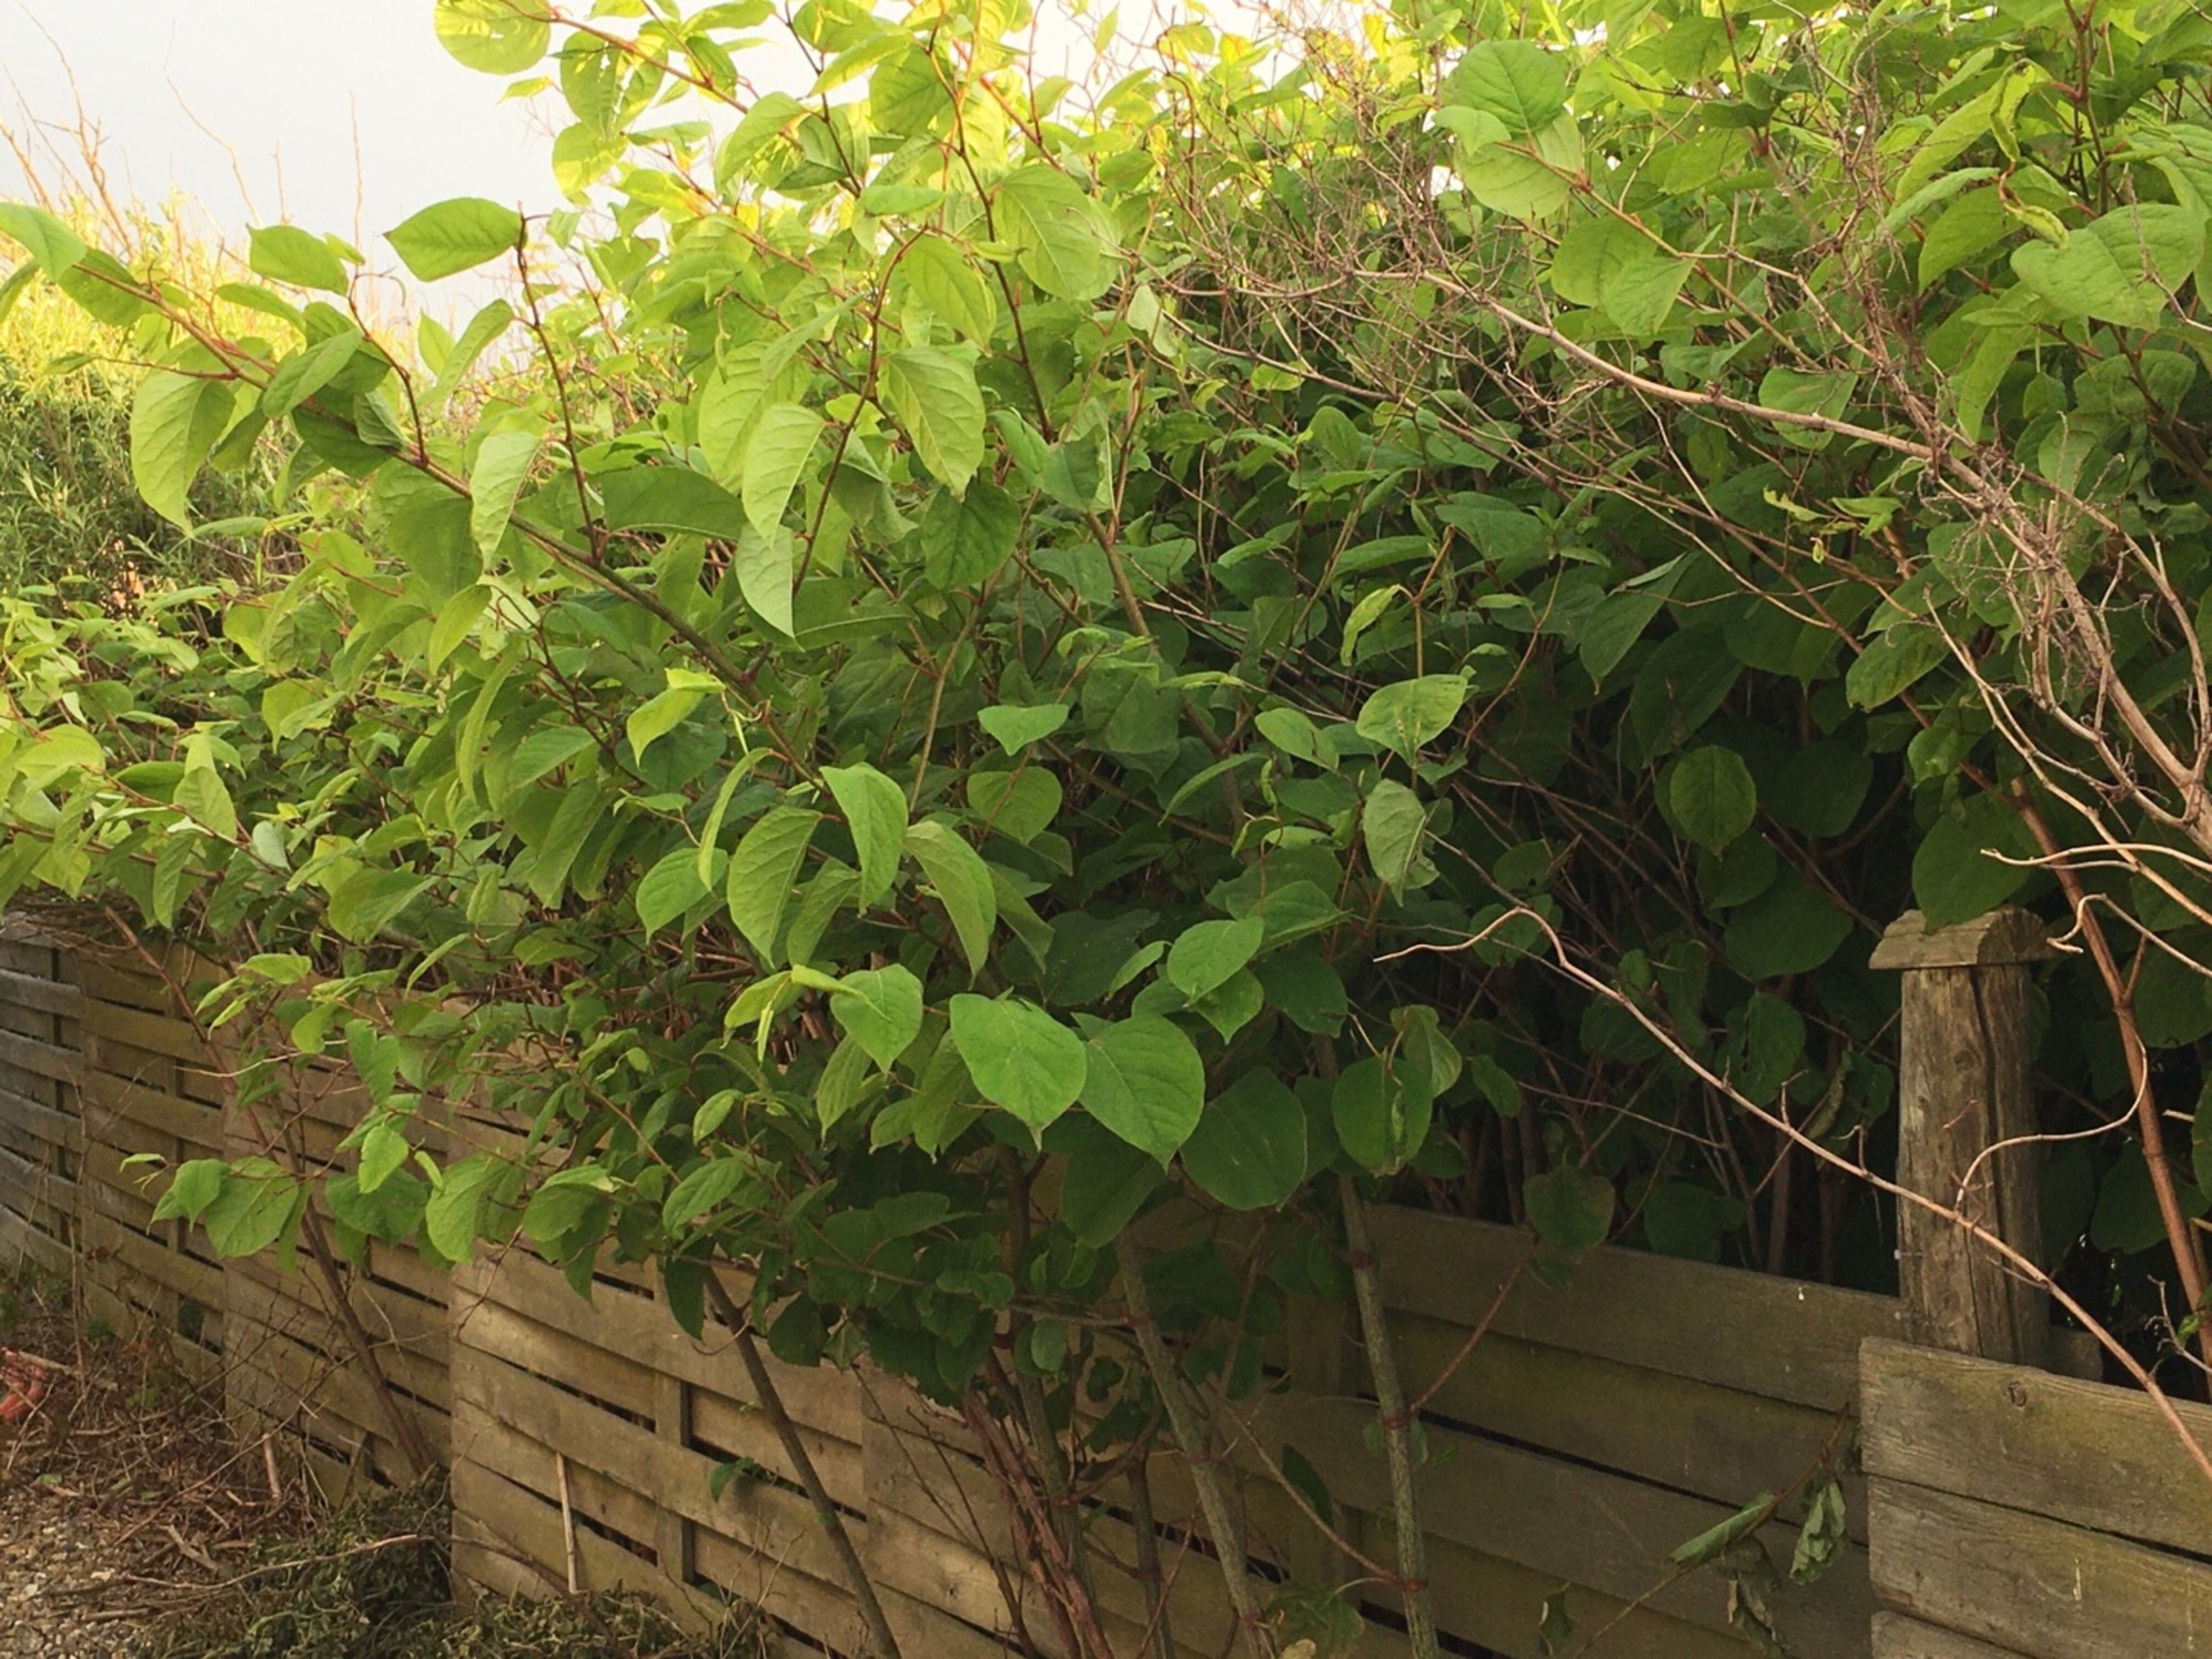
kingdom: Plantae
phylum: Tracheophyta
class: Magnoliopsida
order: Caryophyllales
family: Polygonaceae
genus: Reynoutria
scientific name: Reynoutria japonica
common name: Japan-pileurt
